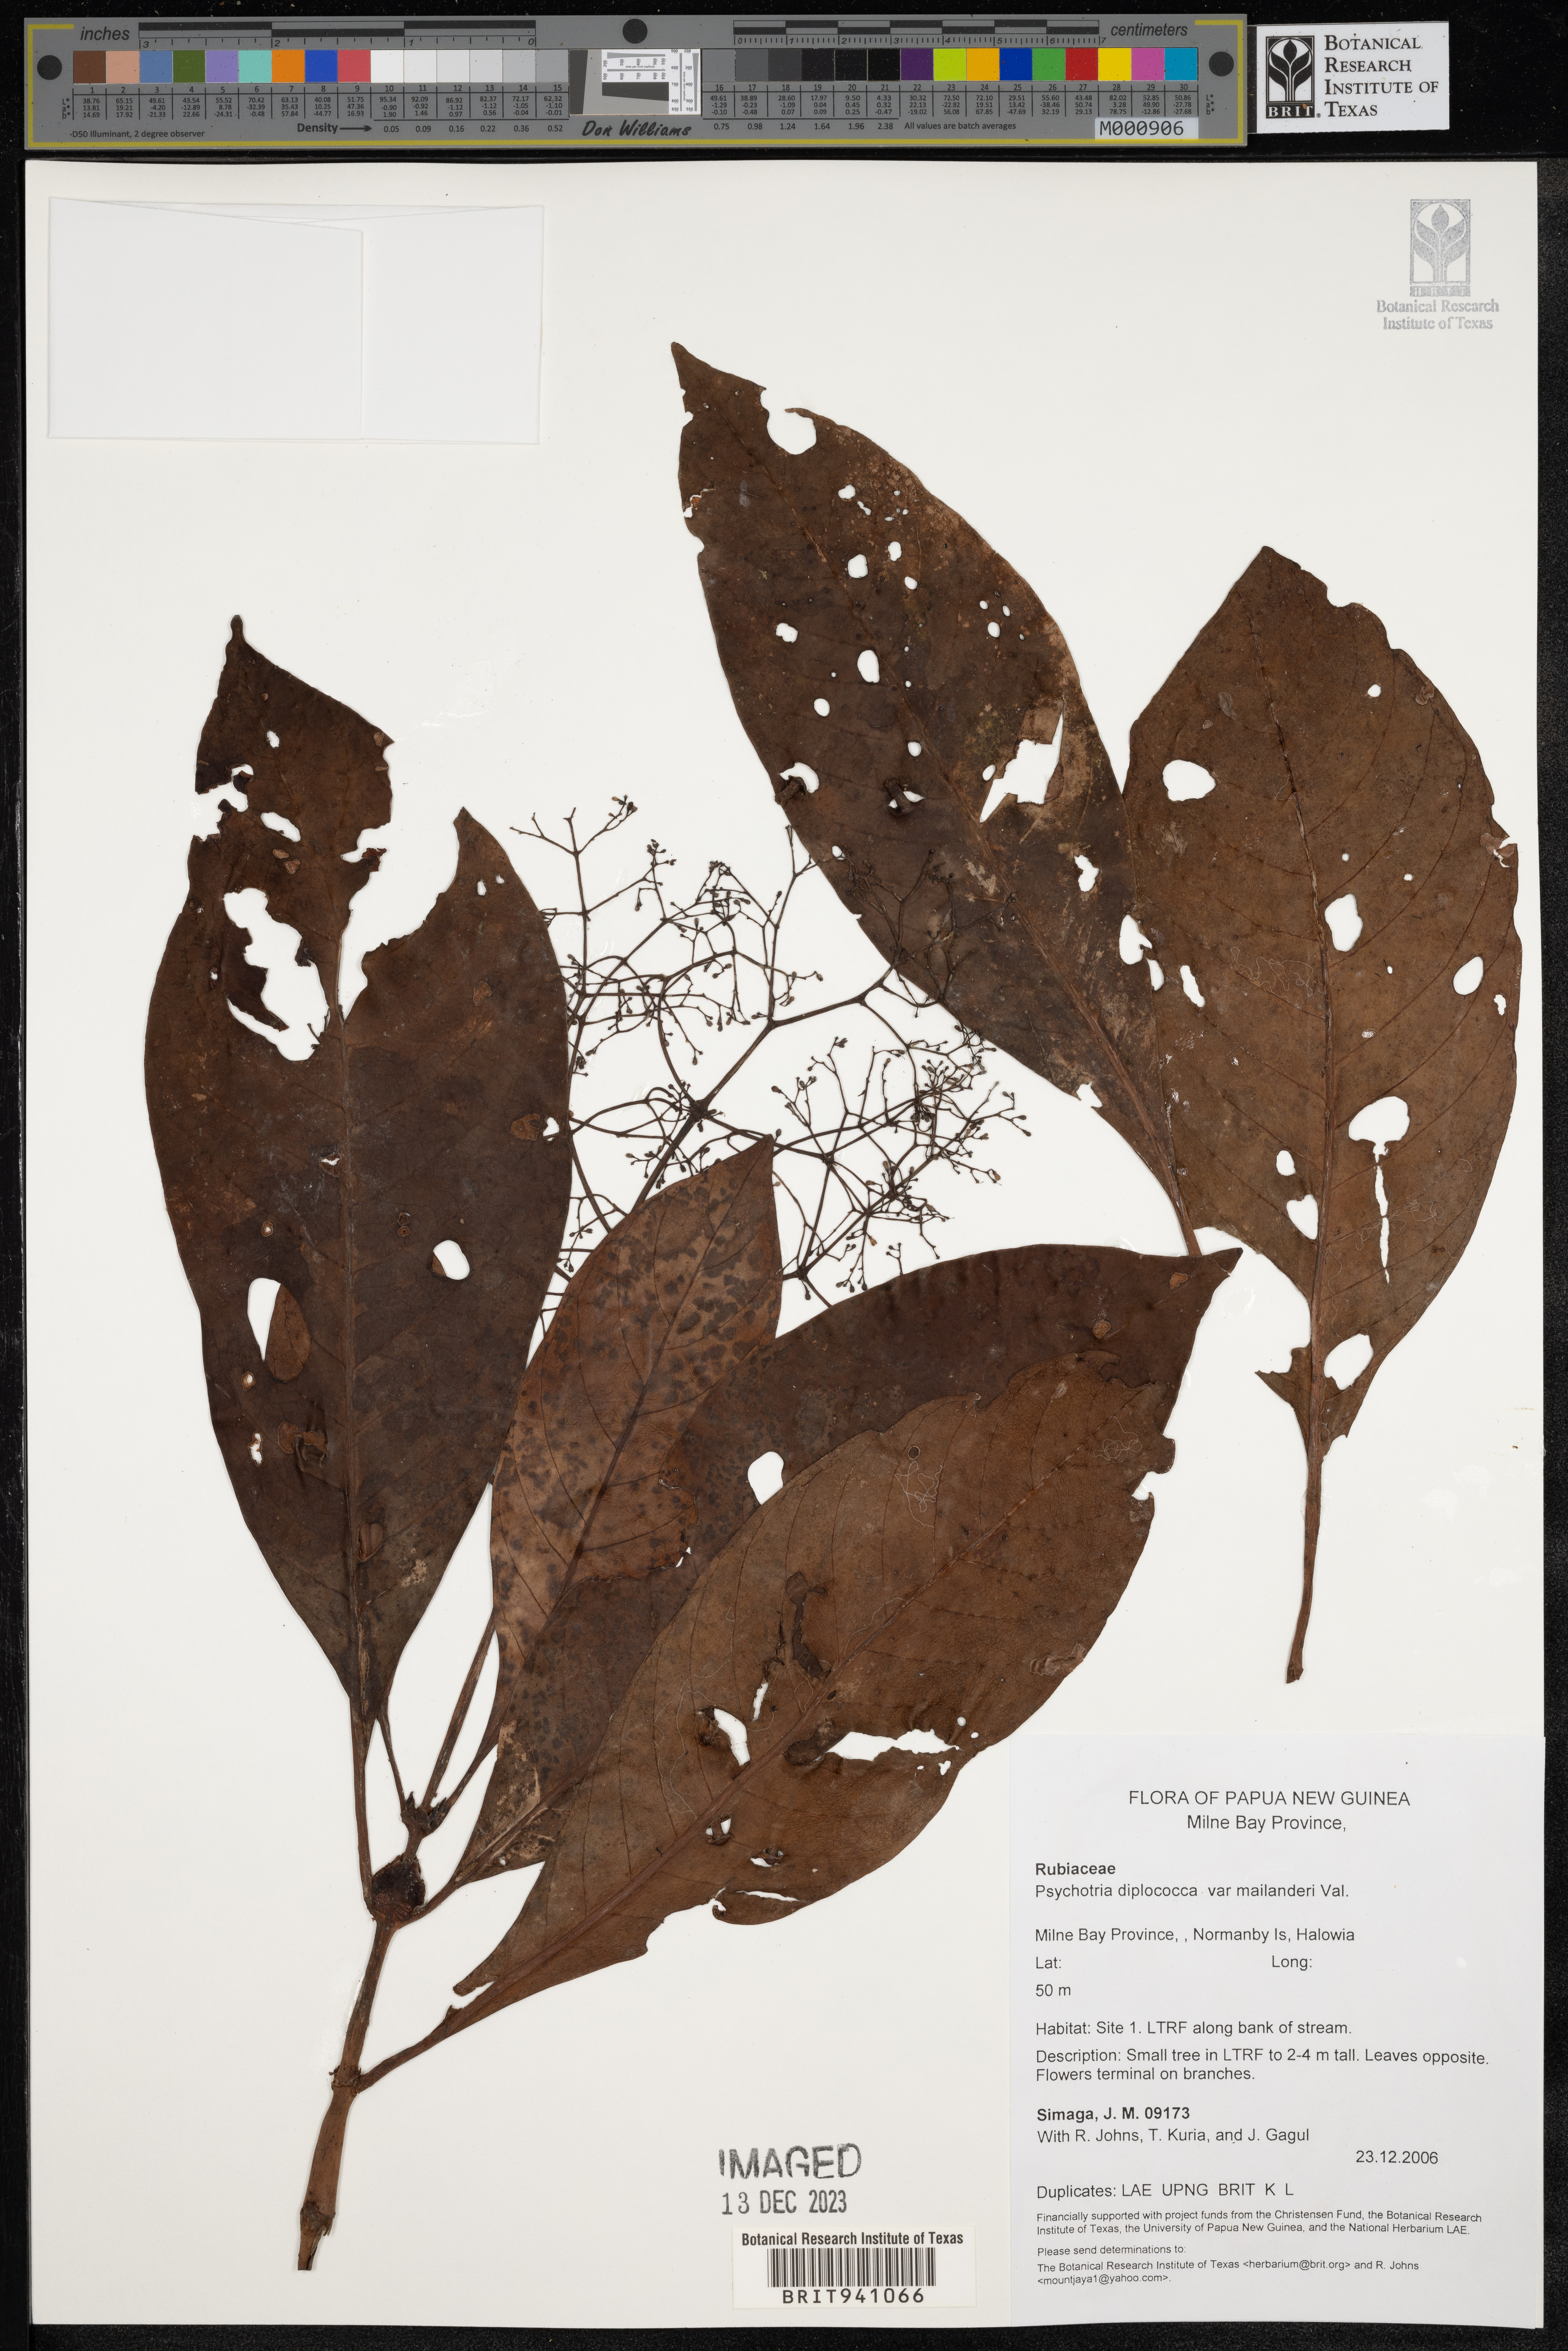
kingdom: Plantae
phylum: Tracheophyta
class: Magnoliopsida
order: Gentianales
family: Rubiaceae
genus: Psychotria
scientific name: Psychotria
